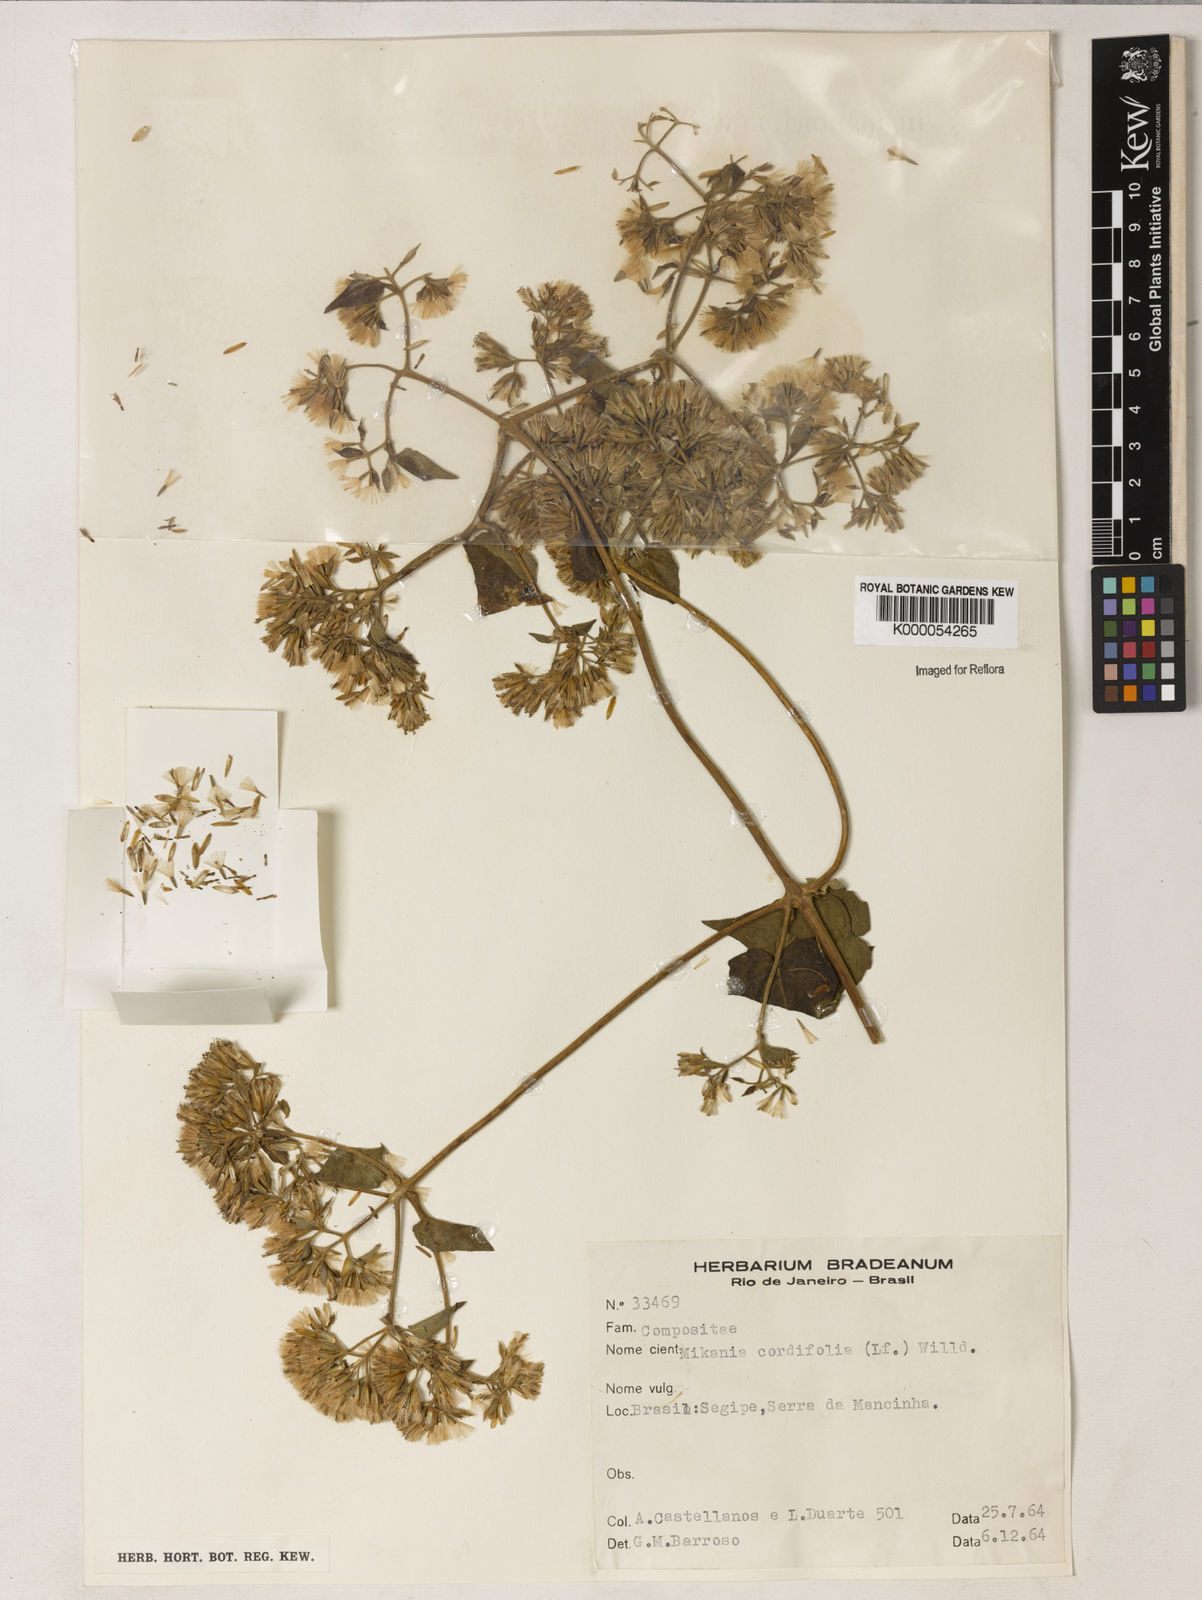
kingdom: Plantae
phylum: Tracheophyta
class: Magnoliopsida
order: Asterales
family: Asteraceae
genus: Mikania
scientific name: Mikania cordifolia
